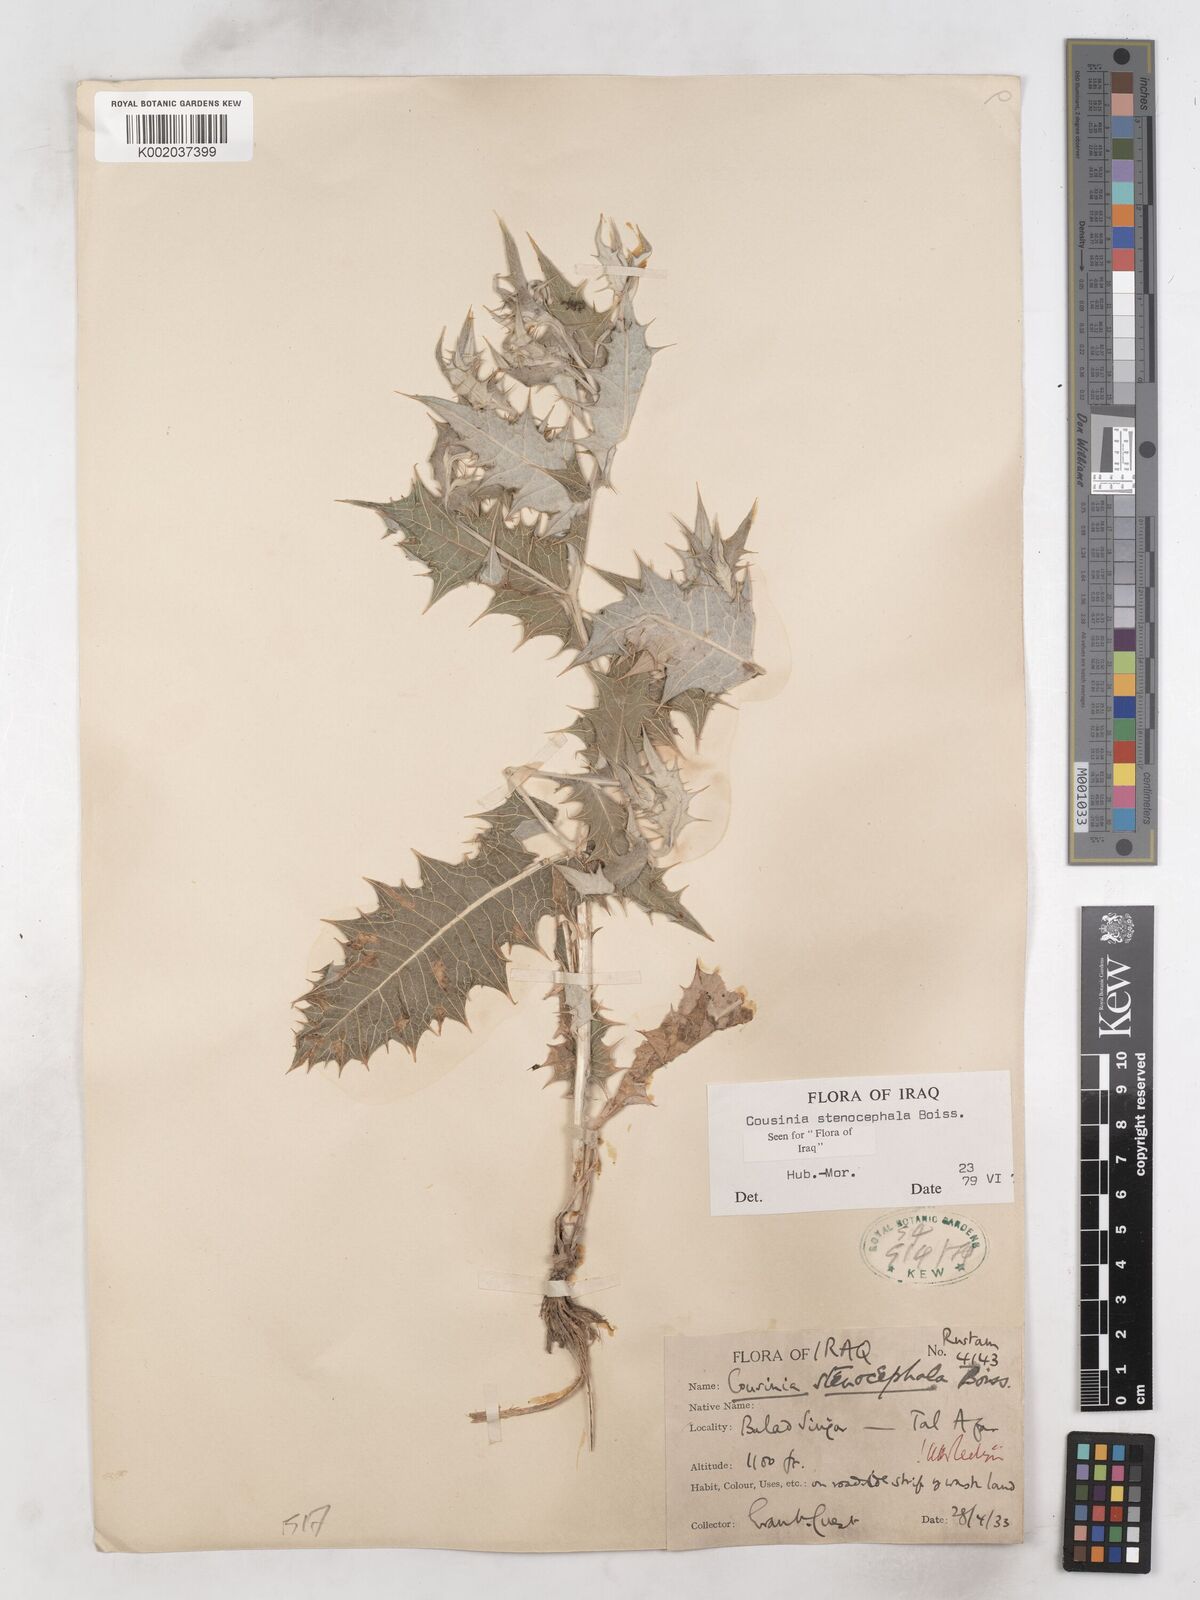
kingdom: Plantae
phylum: Tracheophyta
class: Magnoliopsida
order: Asterales
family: Asteraceae
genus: Cousinia
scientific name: Cousinia stenocephala
